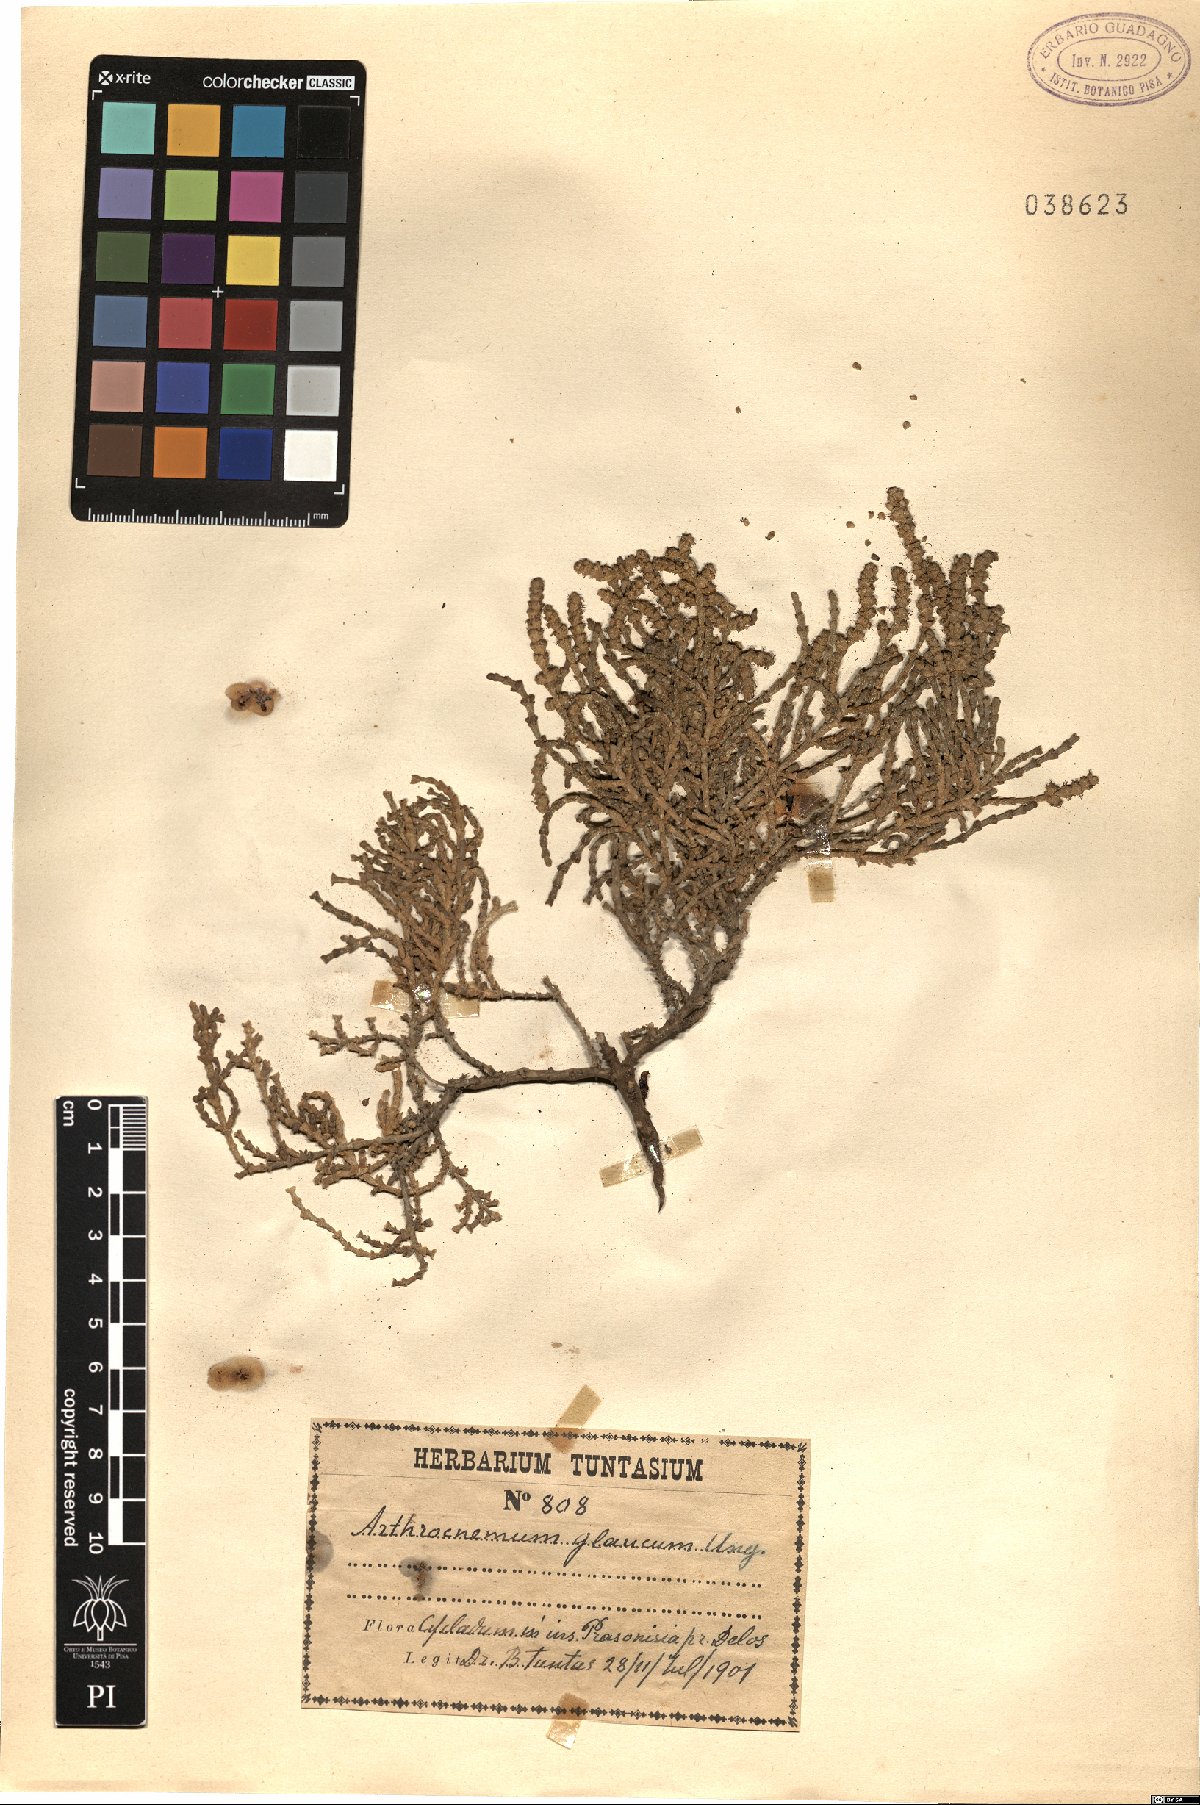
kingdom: Plantae
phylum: Tracheophyta
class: Magnoliopsida
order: Caryophyllales
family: Amaranthaceae
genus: Arthrocaulon
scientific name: Arthrocaulon macrostachyum
